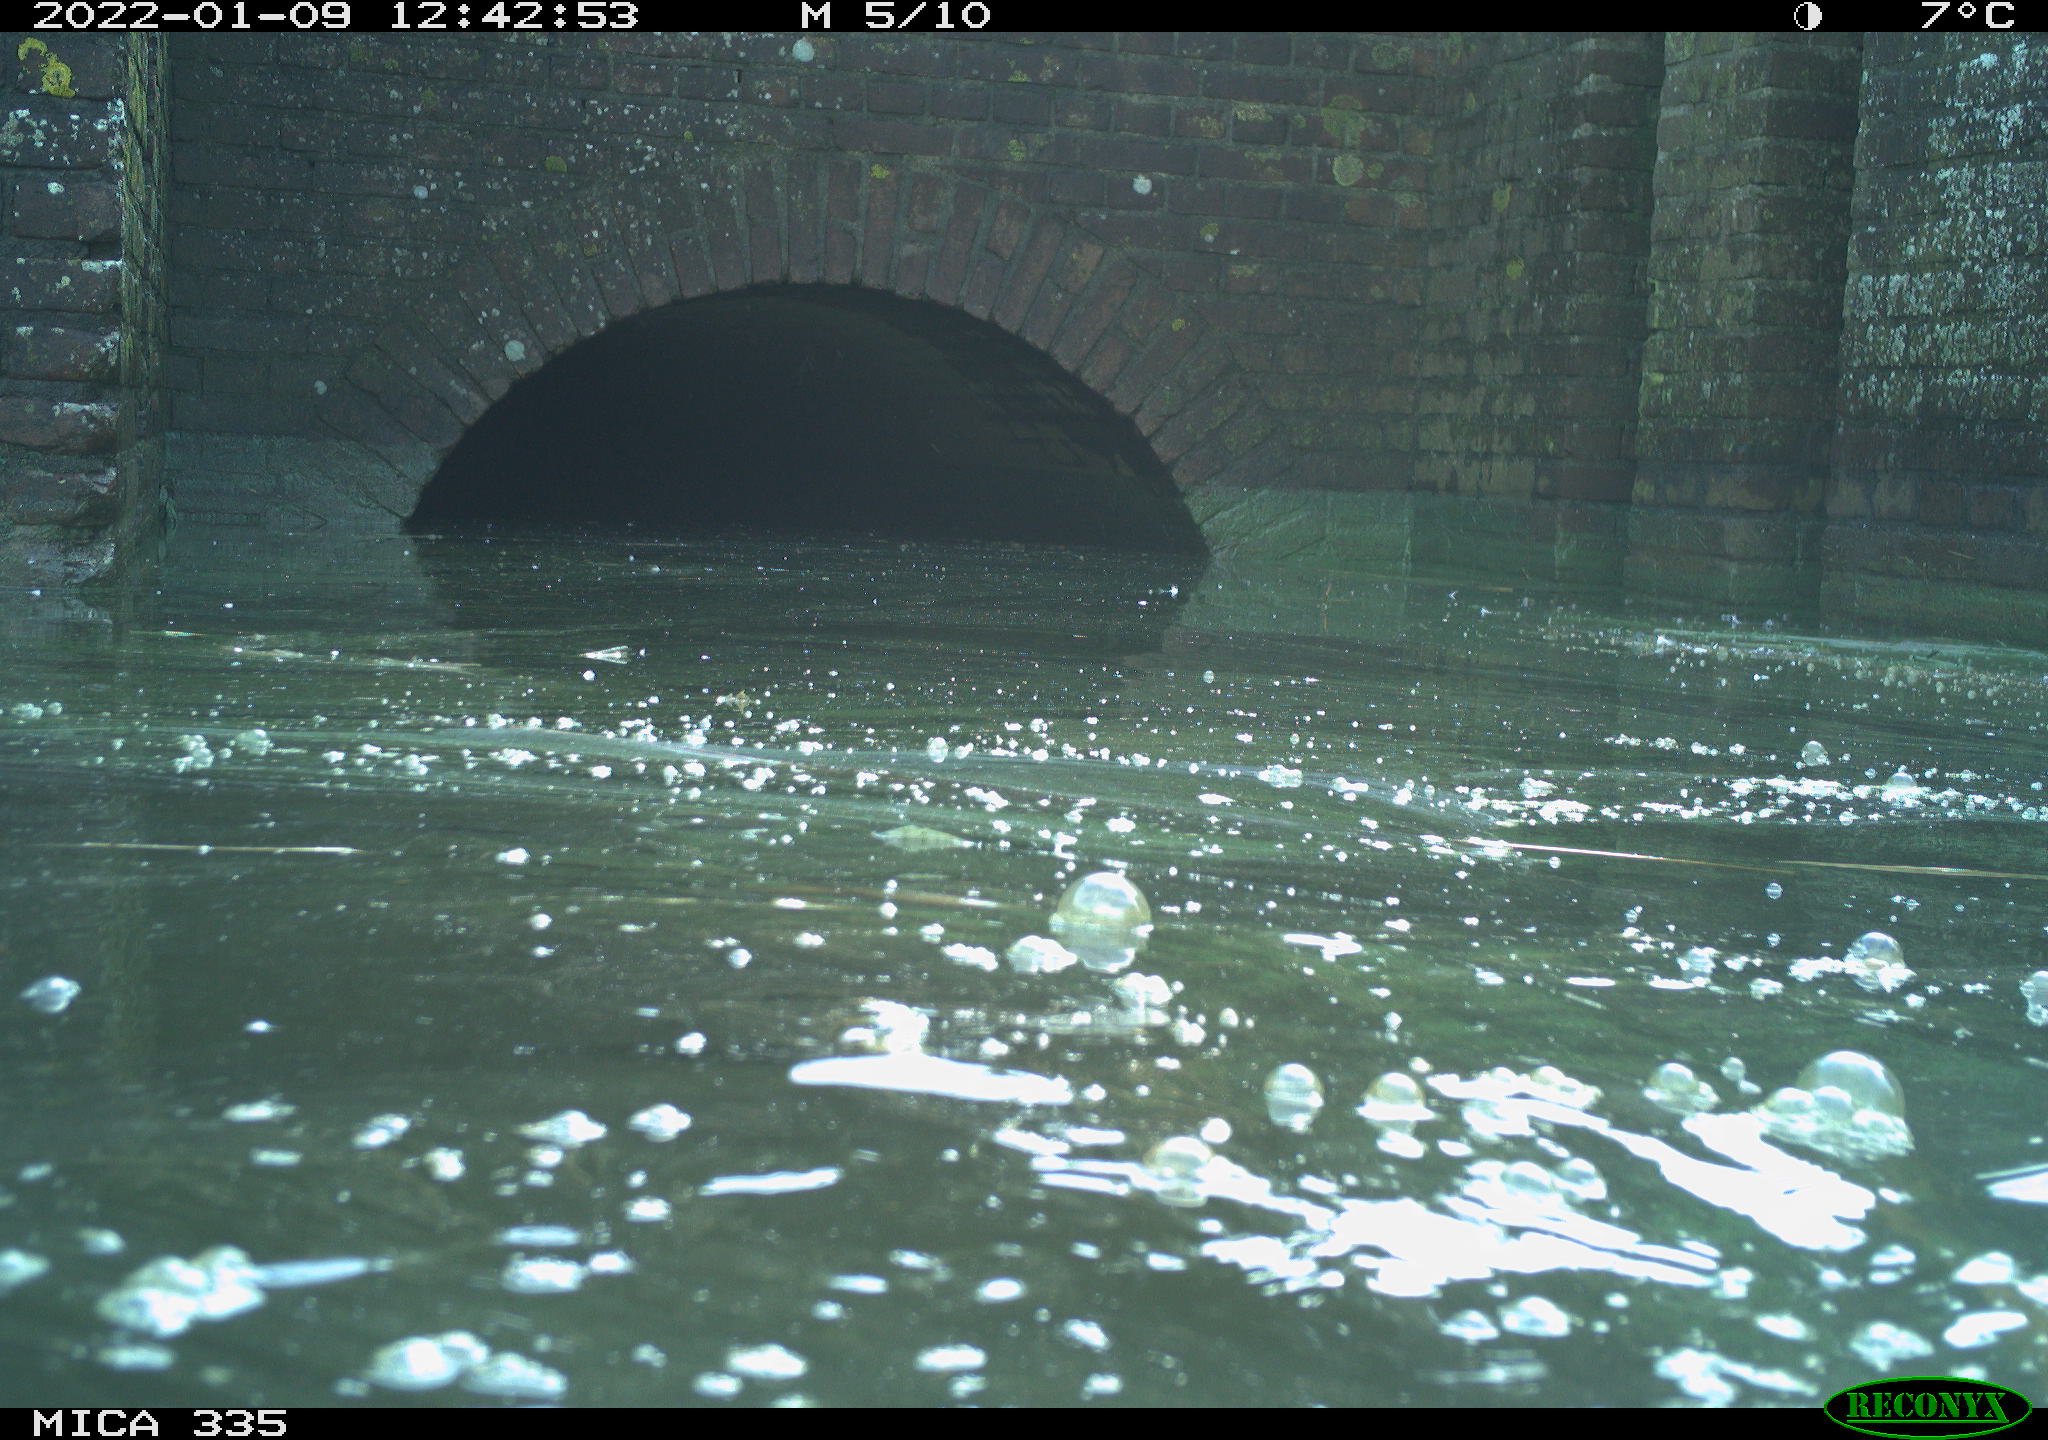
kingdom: Animalia
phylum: Chordata
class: Aves
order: Suliformes
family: Phalacrocoracidae
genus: Phalacrocorax
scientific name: Phalacrocorax carbo
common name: Great cormorant
